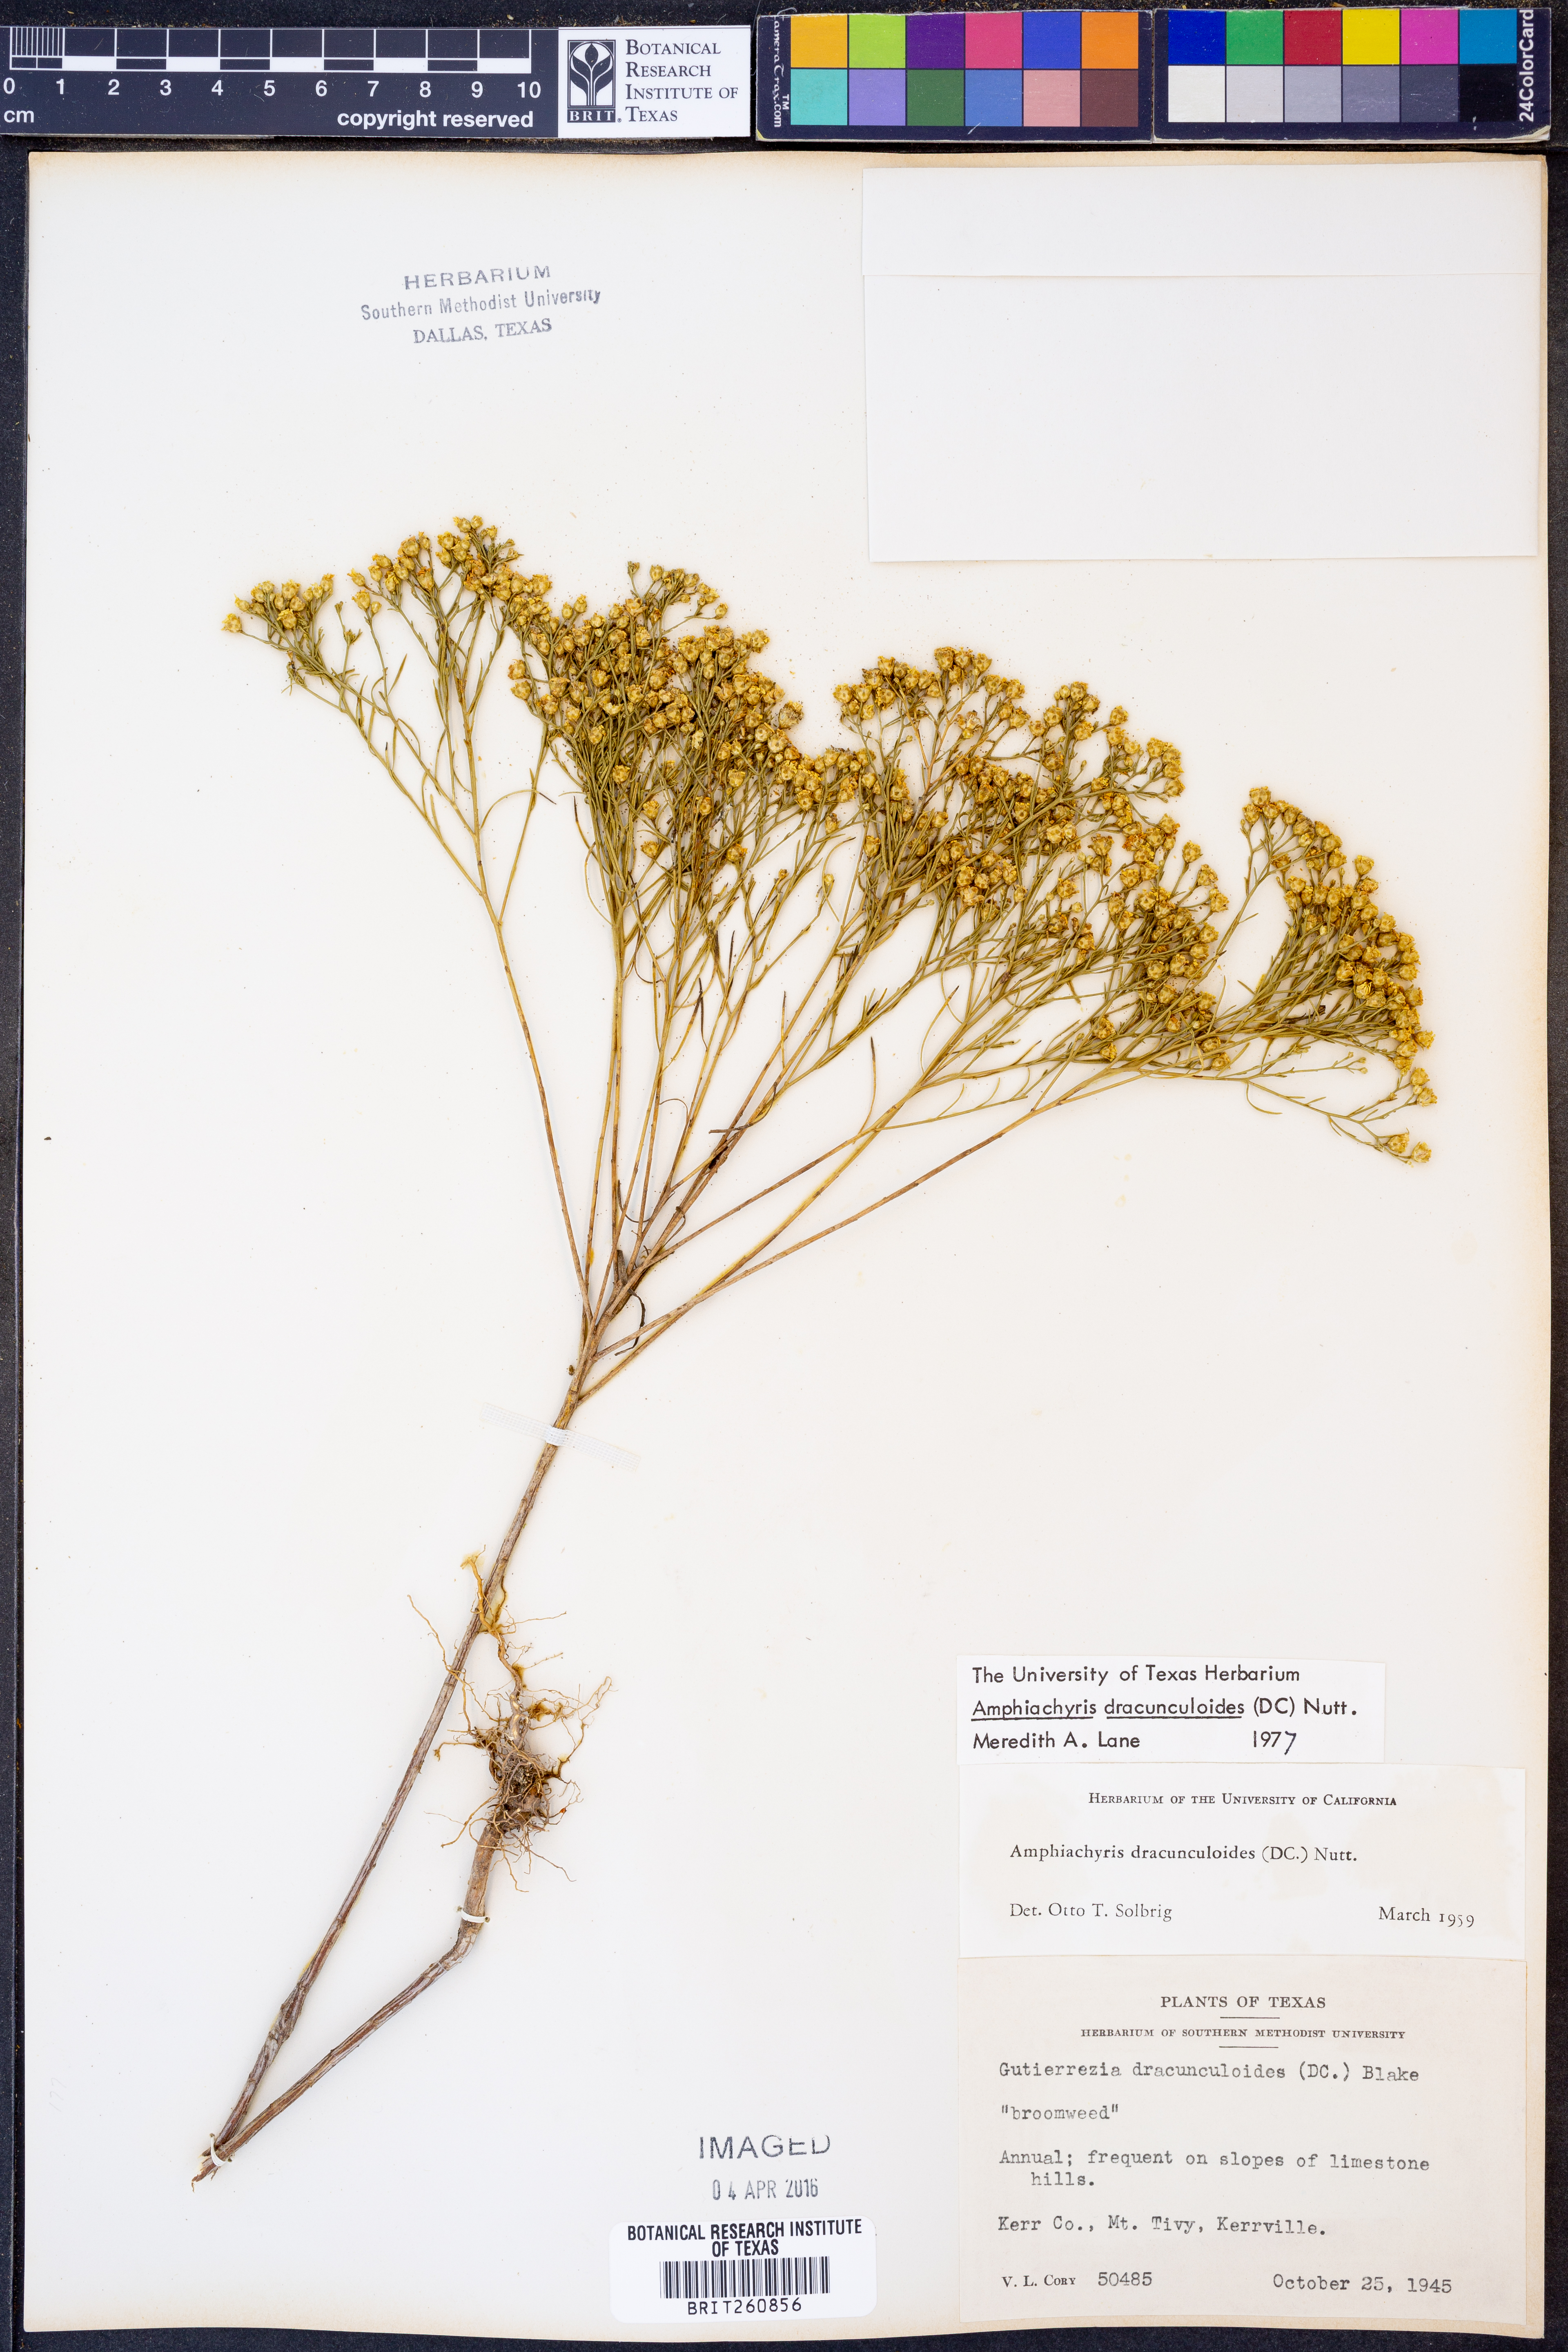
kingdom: Plantae
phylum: Tracheophyta
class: Magnoliopsida
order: Asterales
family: Asteraceae
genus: Amphiachyris
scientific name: Amphiachyris dracunculoides
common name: Broomweed
